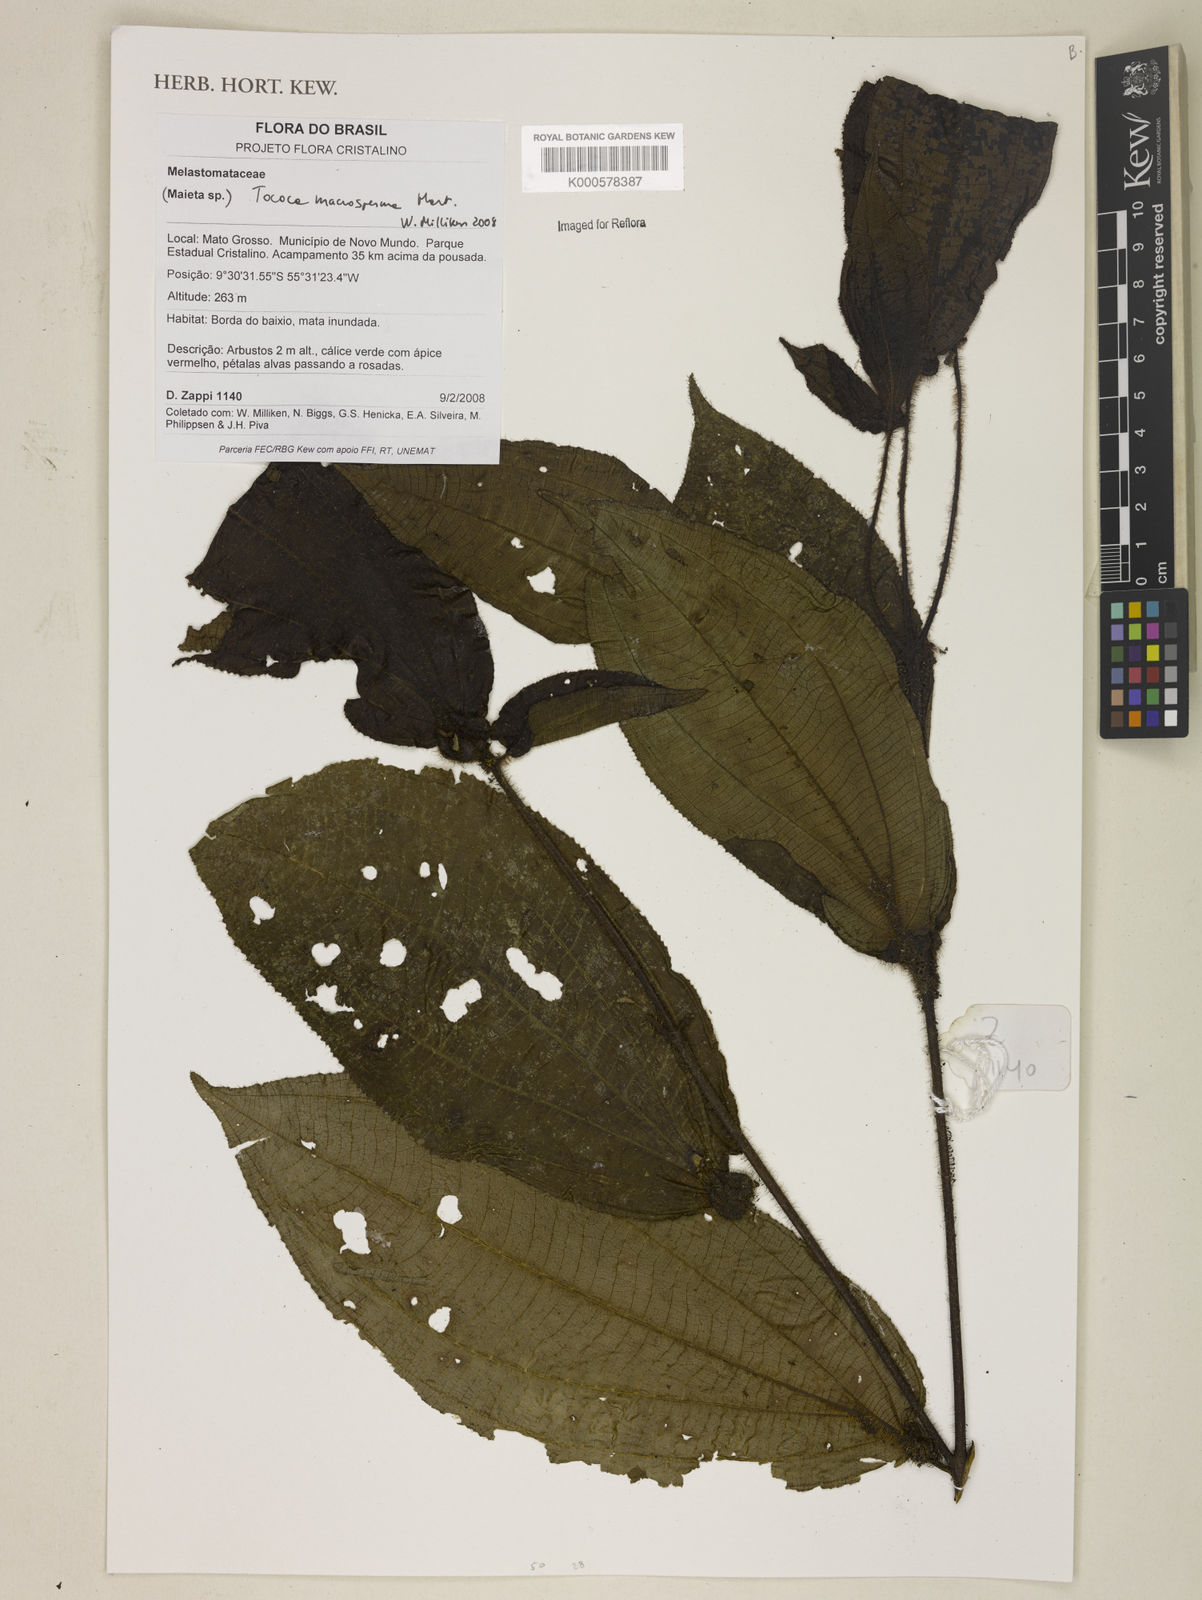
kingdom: Plantae
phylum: Tracheophyta
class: Magnoliopsida
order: Myrtales
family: Melastomataceae
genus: Miconia
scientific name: Miconia macrosperma
